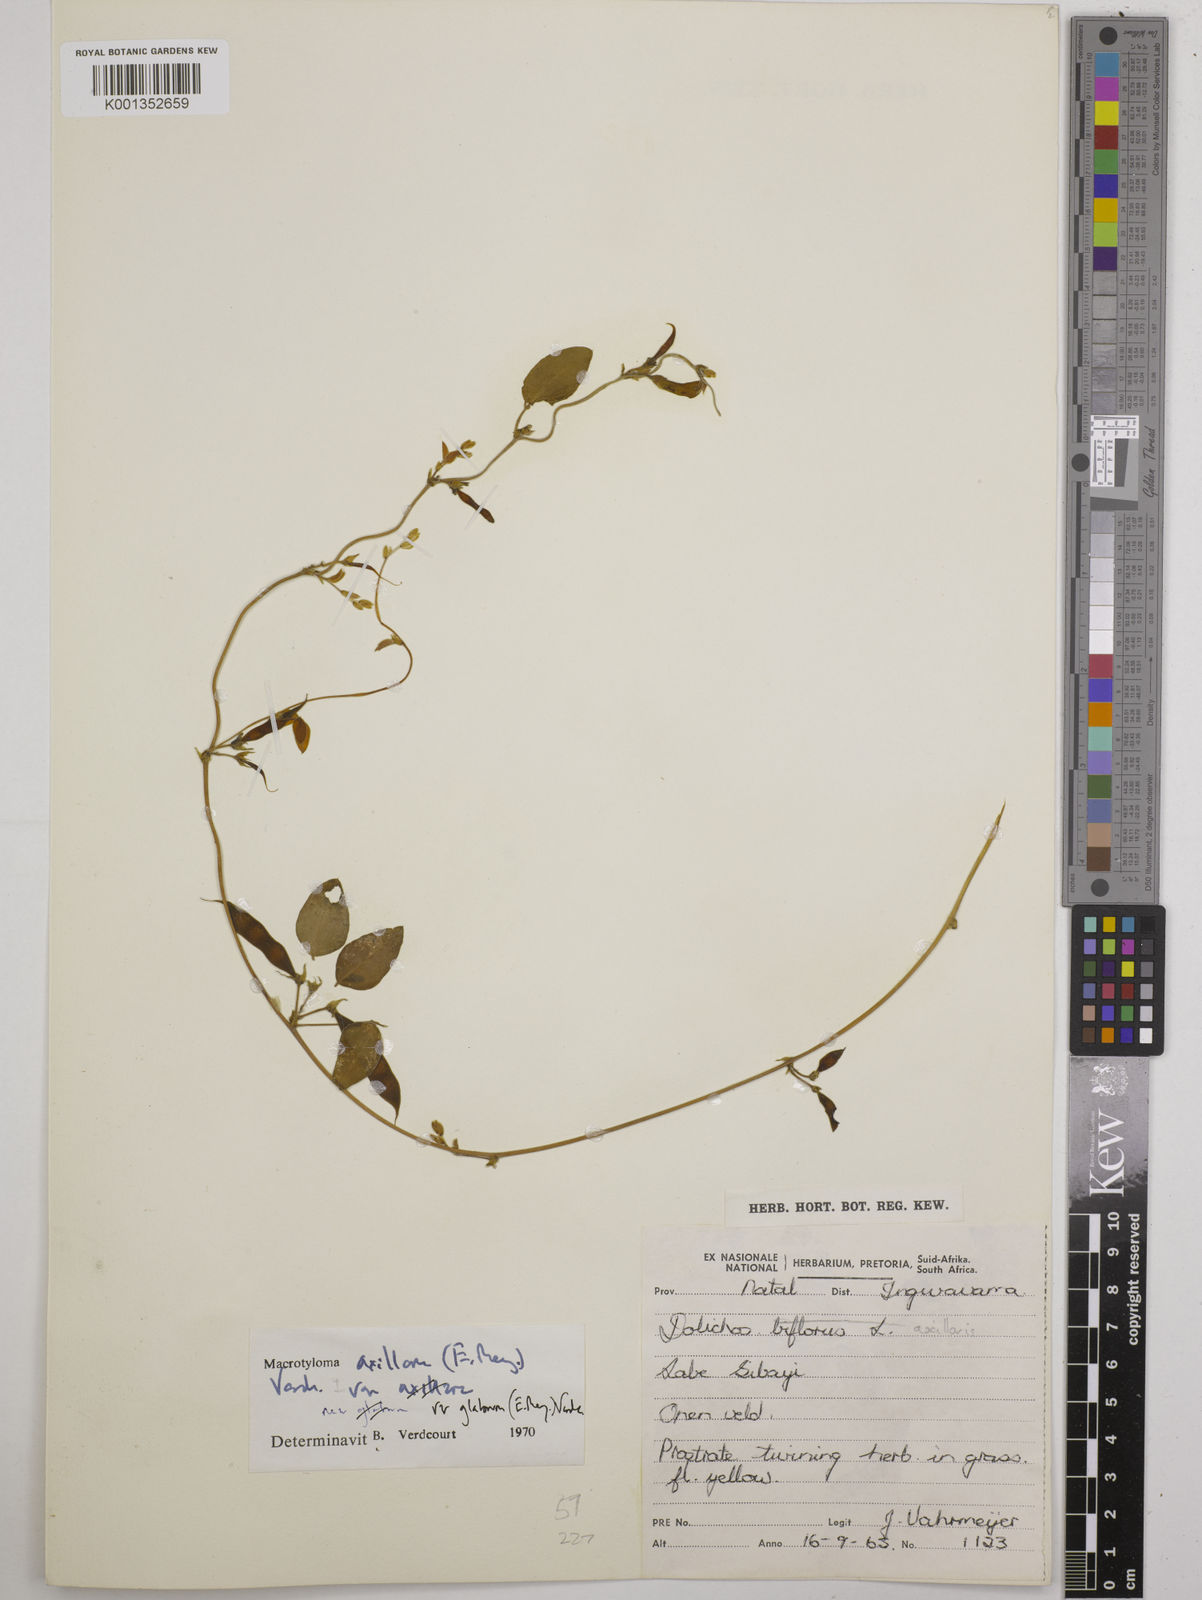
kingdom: Plantae
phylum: Tracheophyta
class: Magnoliopsida
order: Fabales
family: Fabaceae
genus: Macrotyloma
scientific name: Macrotyloma axillare
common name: Perennial horsegram
